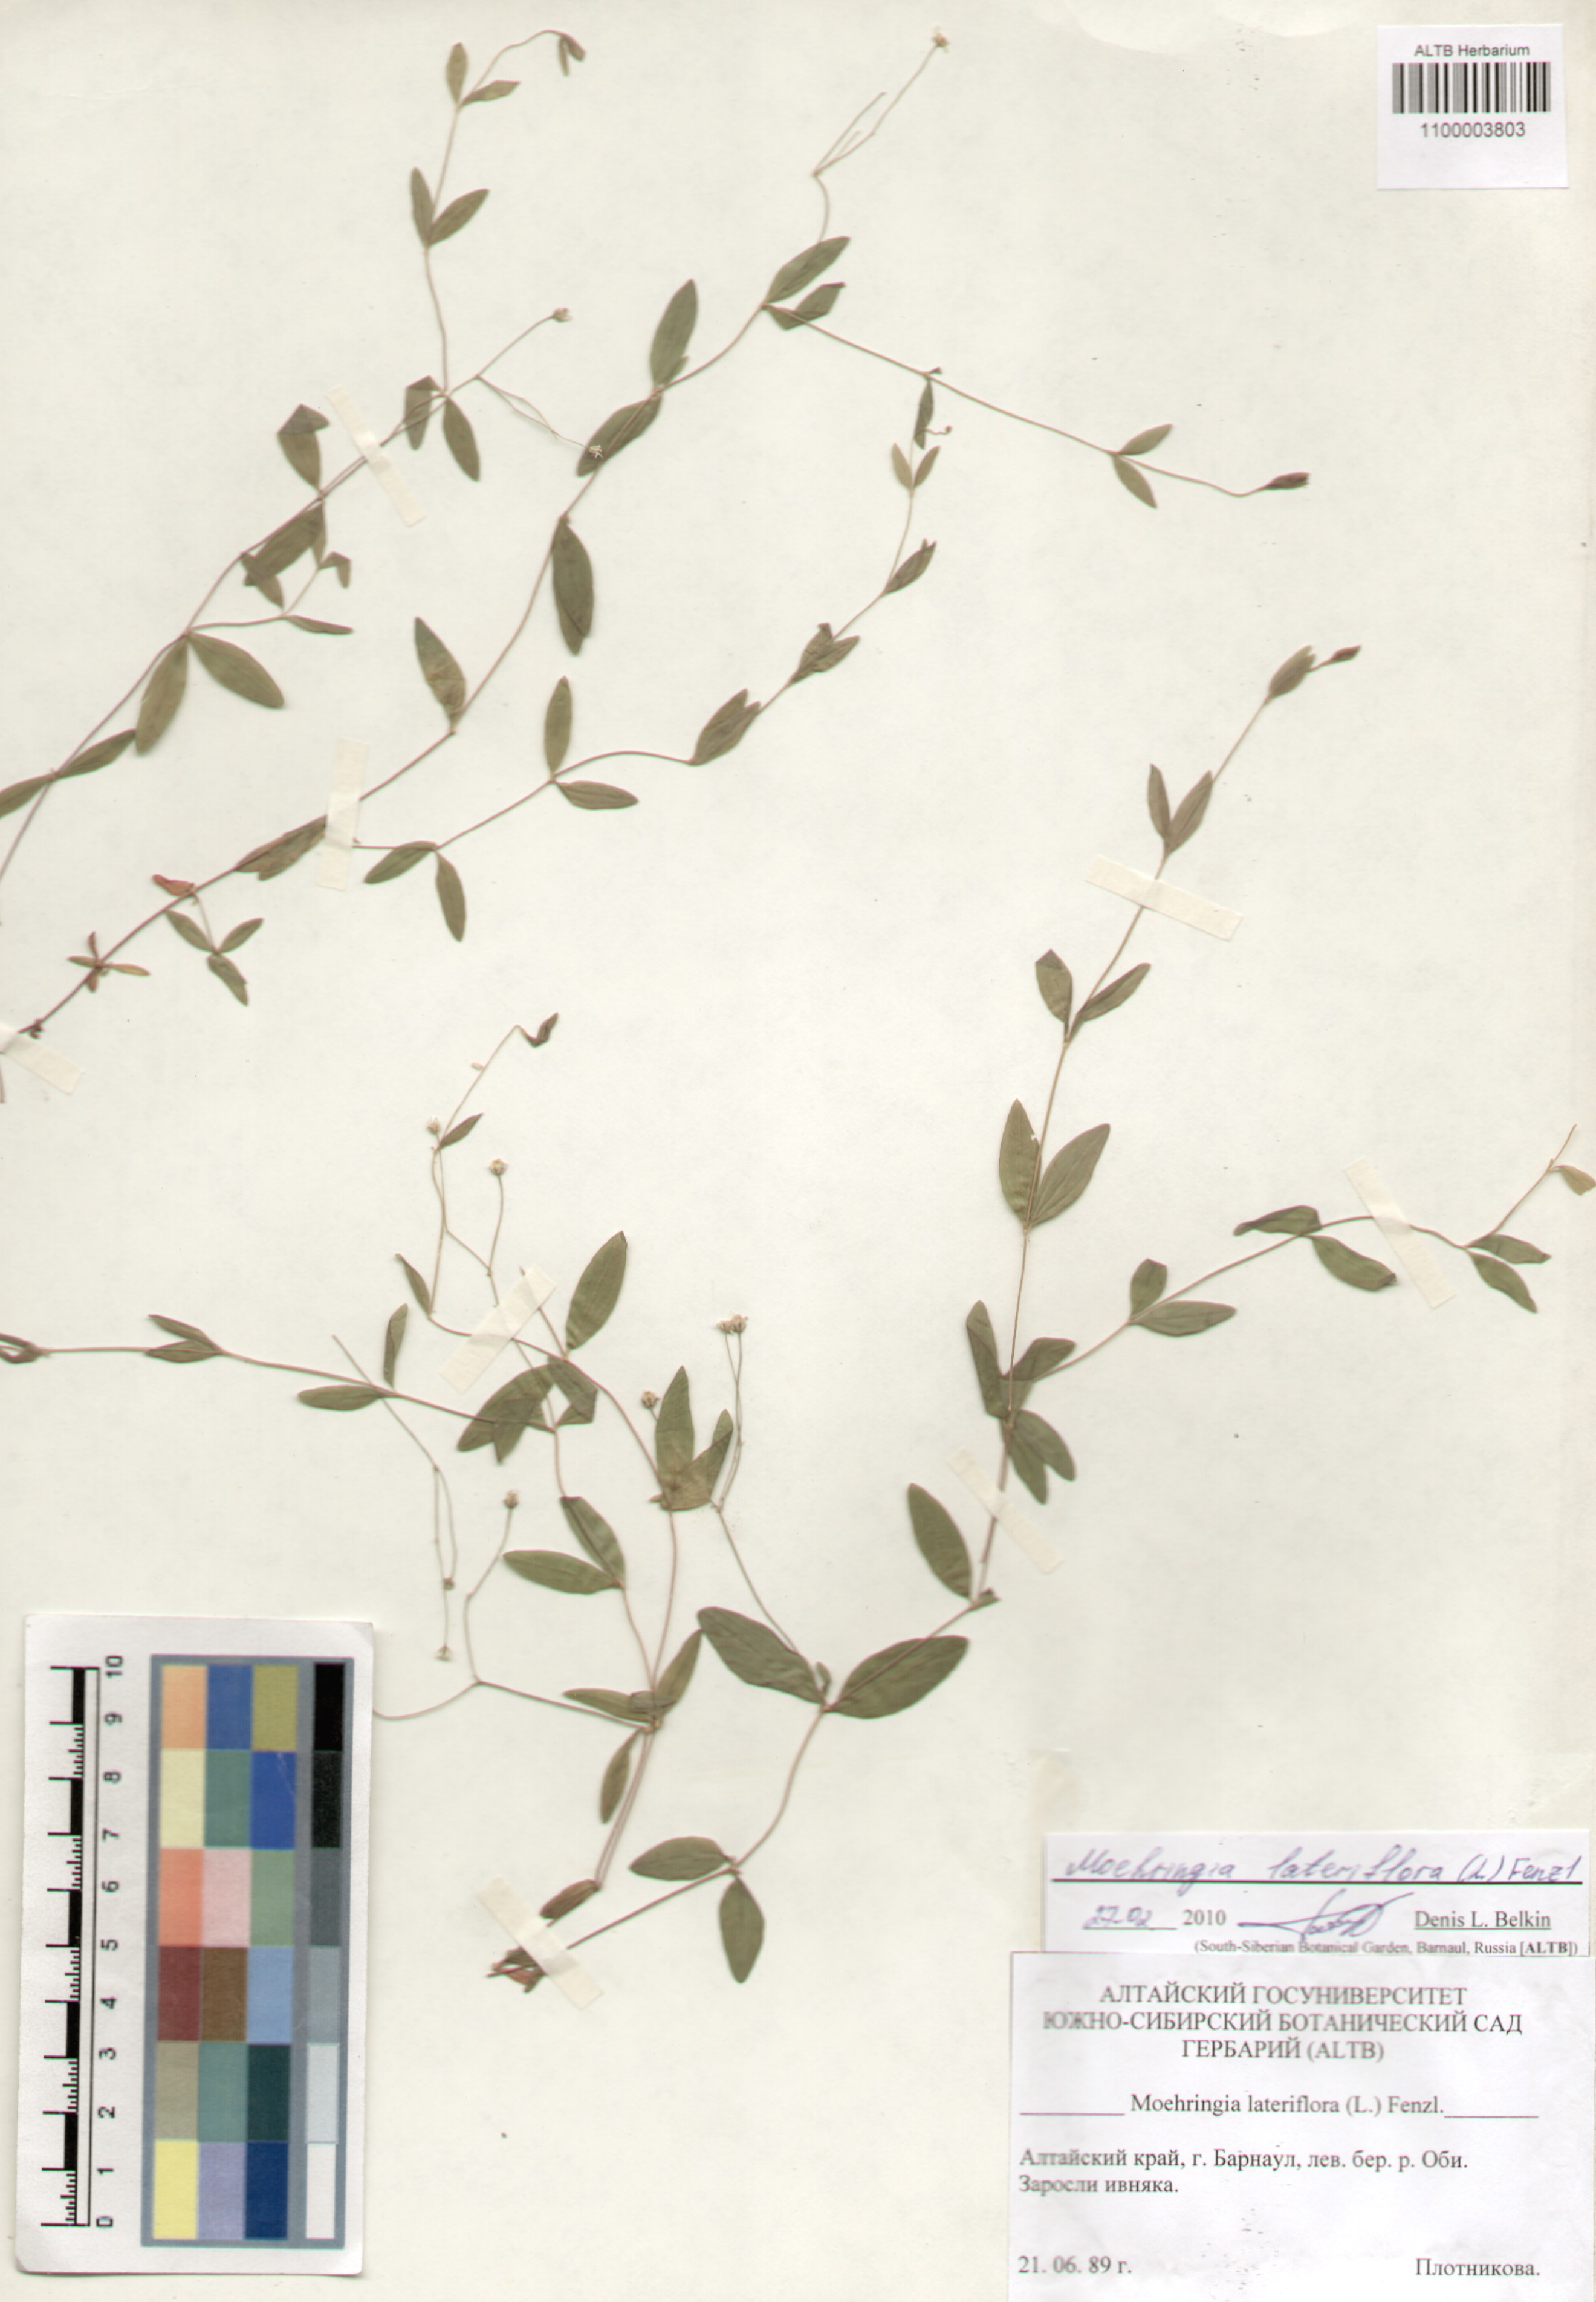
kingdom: Plantae
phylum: Tracheophyta
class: Magnoliopsida
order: Caryophyllales
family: Caryophyllaceae
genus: Moehringia
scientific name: Moehringia lateriflora
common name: Blunt-leaved sandwort
